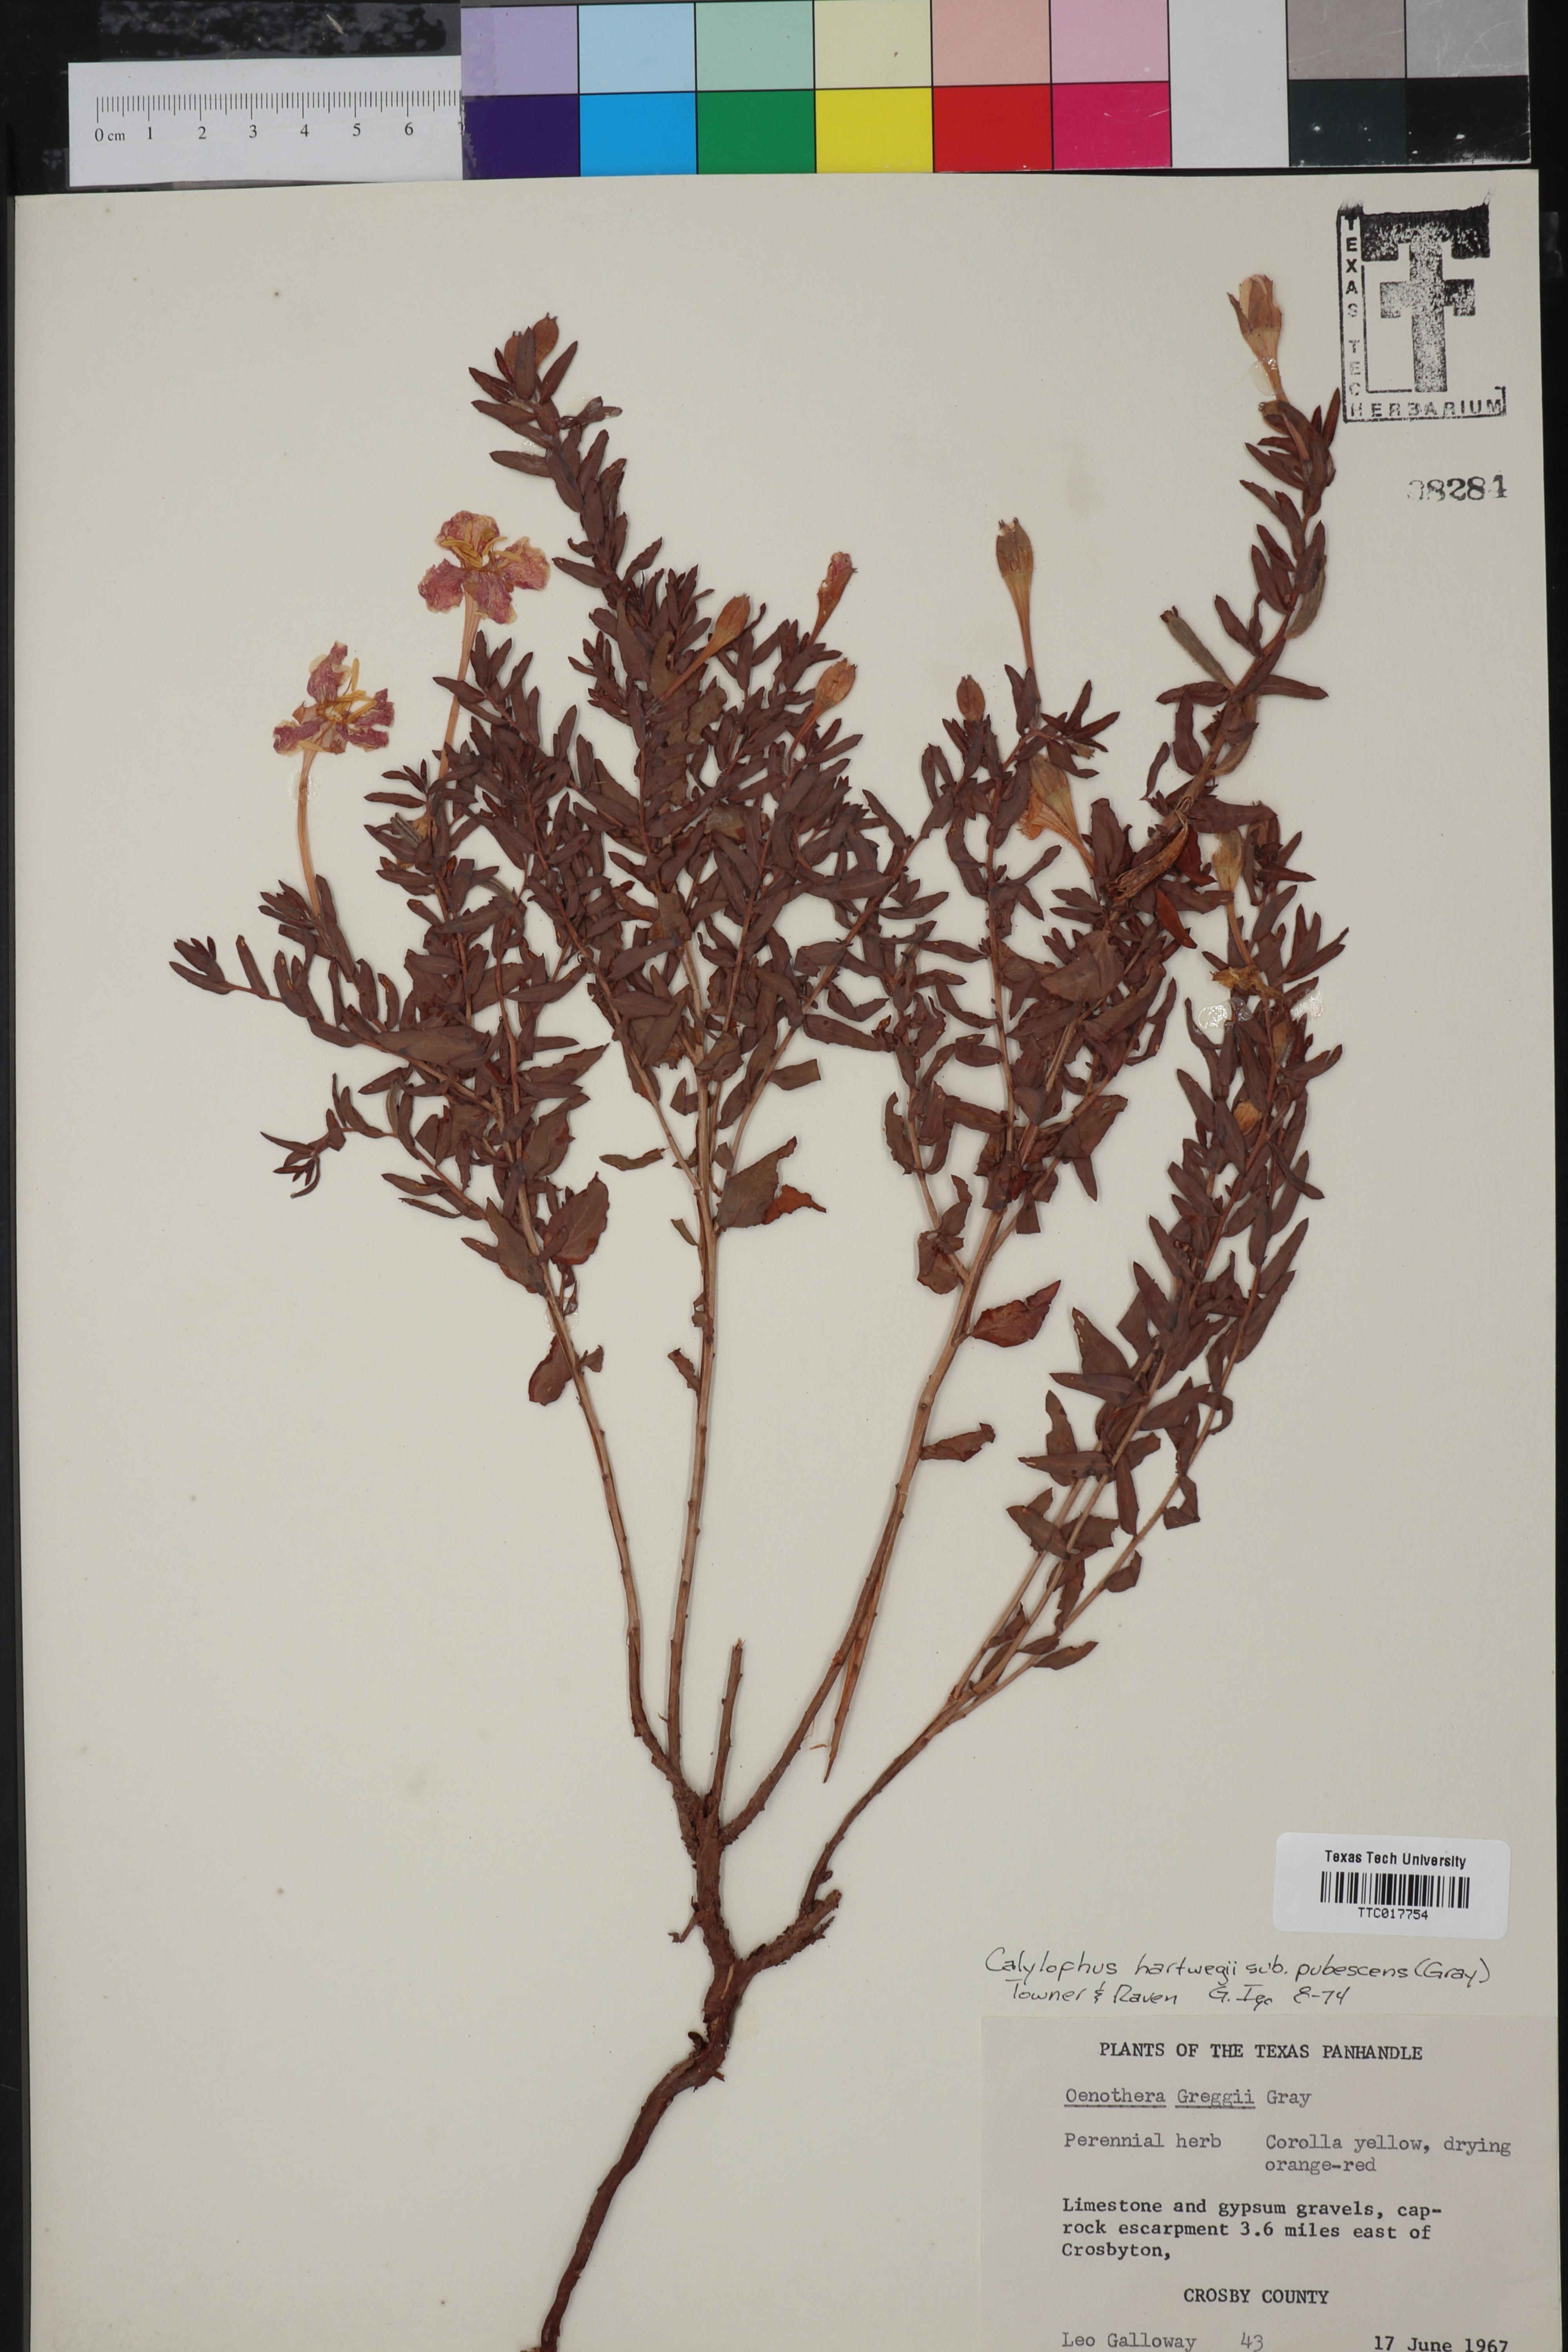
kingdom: Plantae
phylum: Tracheophyta
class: Magnoliopsida
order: Myrtales
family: Onagraceae
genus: Oenothera
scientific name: Oenothera hartwegii
